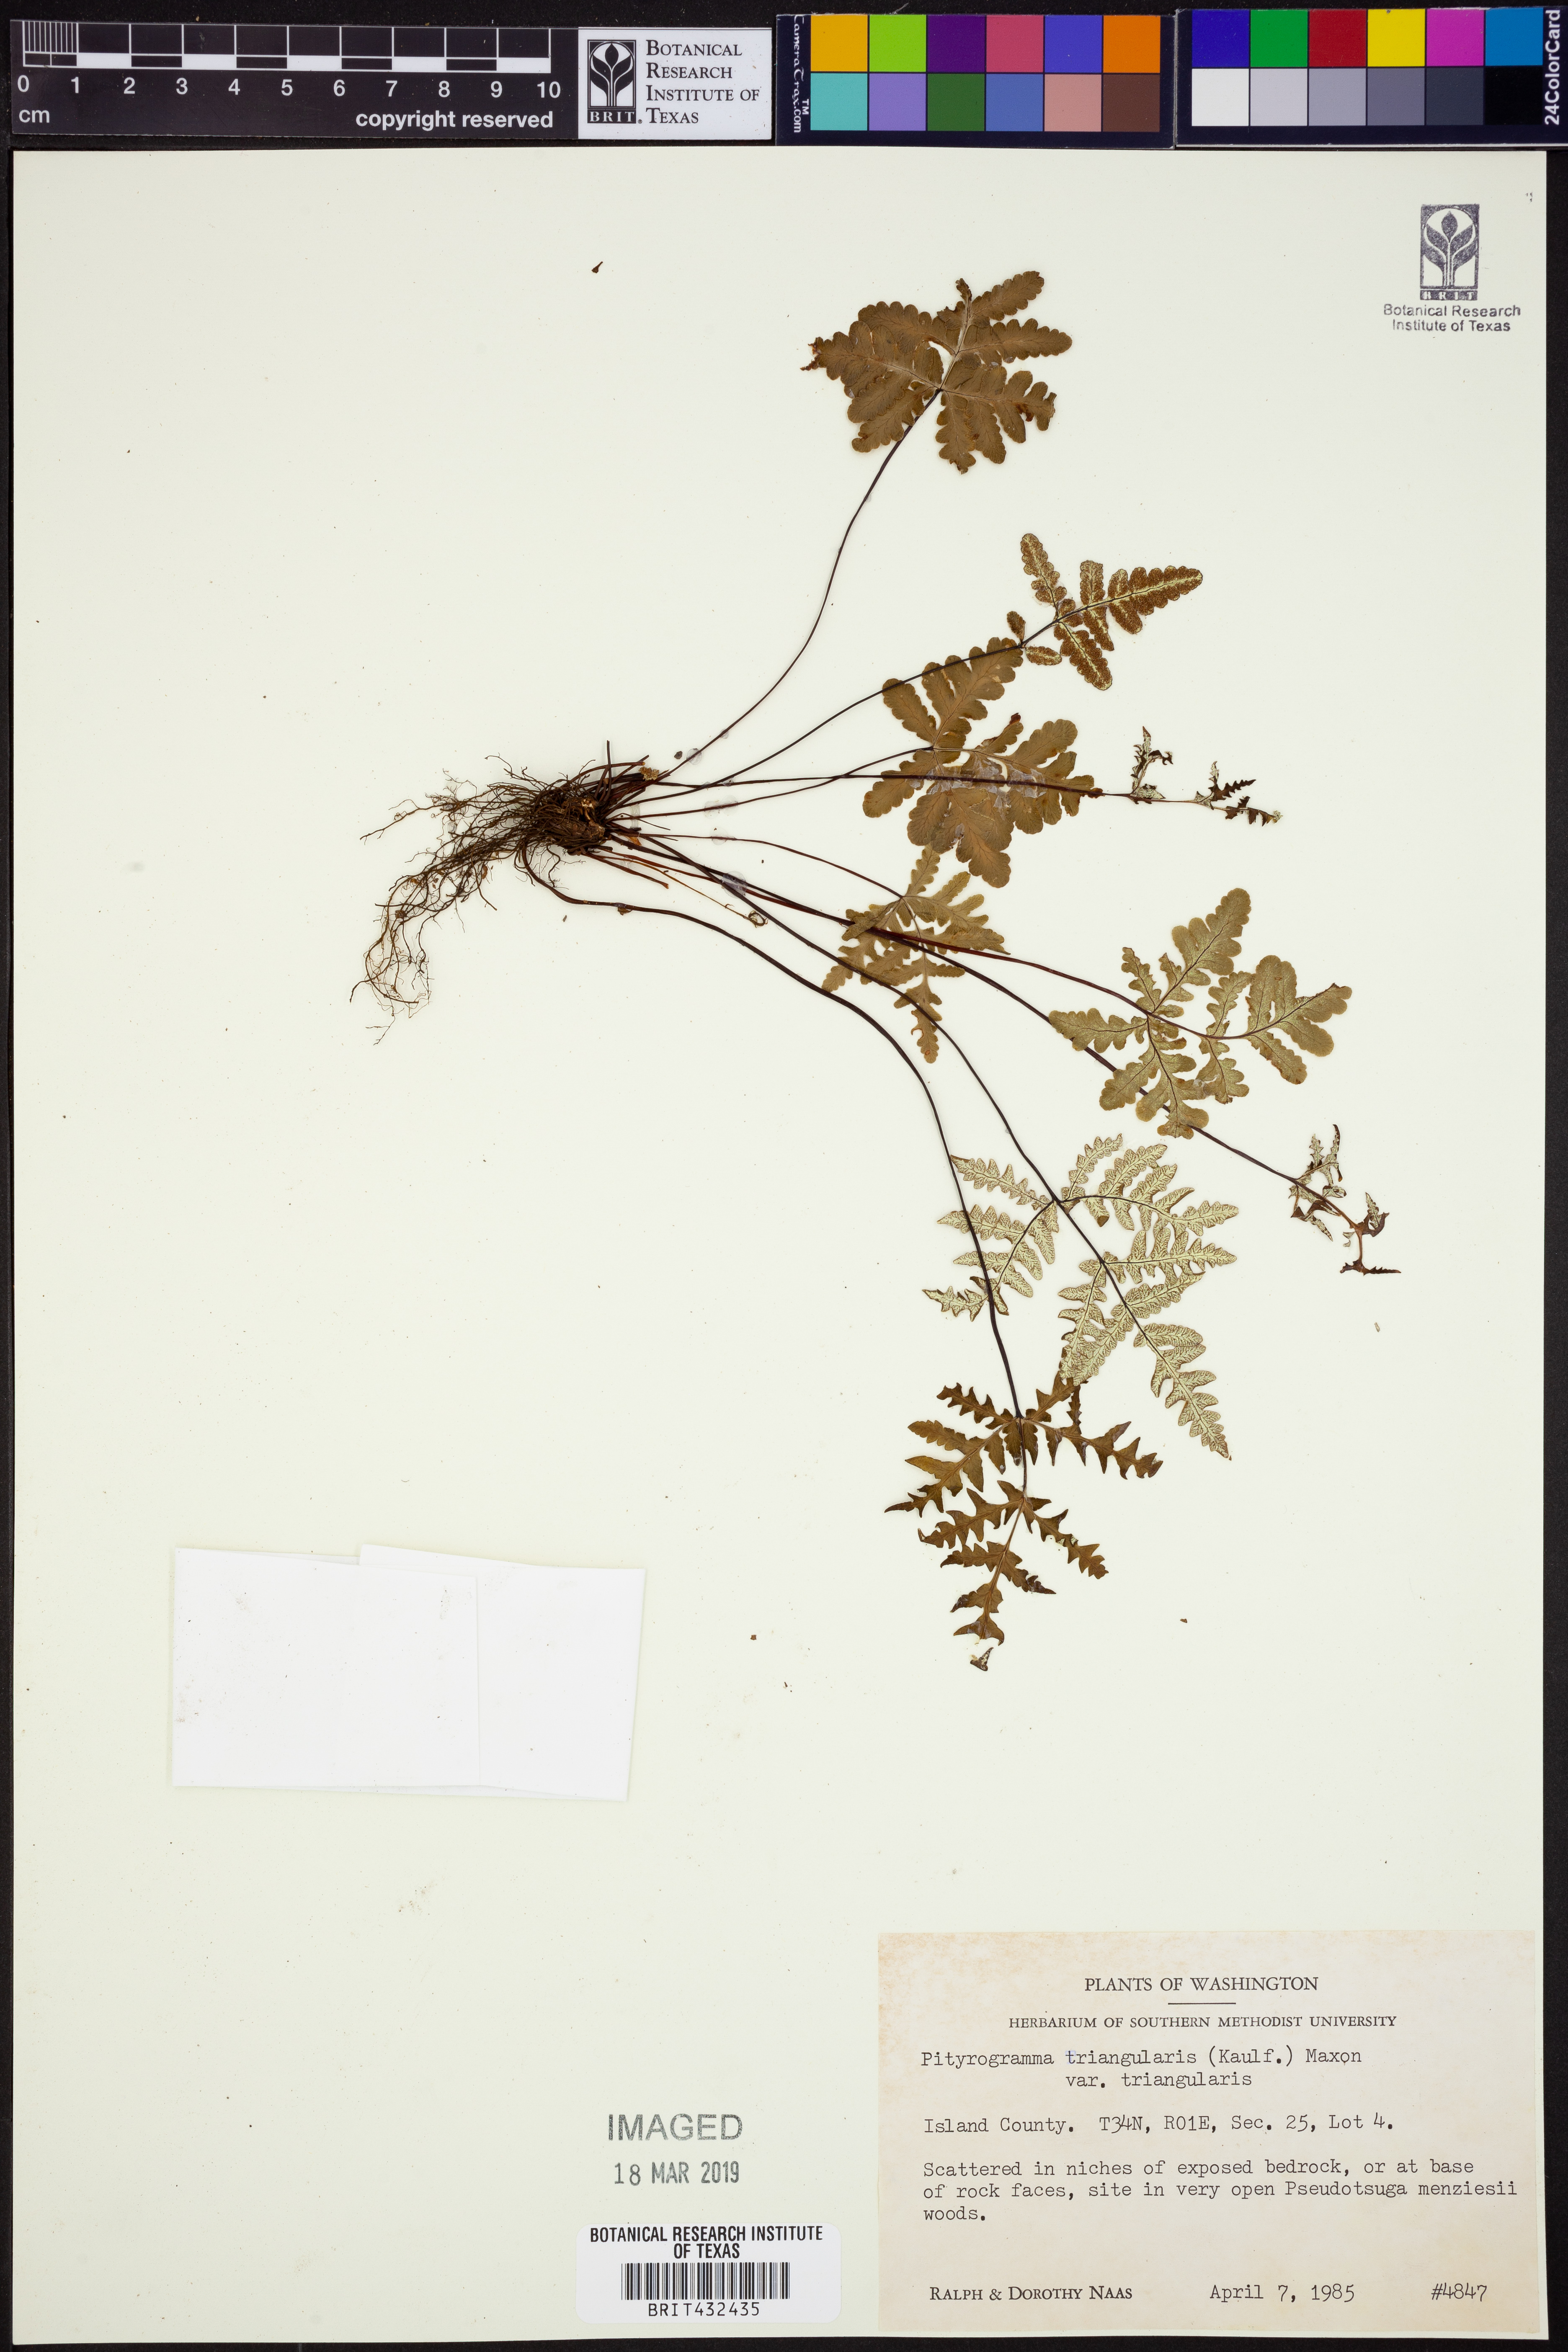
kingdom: Plantae
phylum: Tracheophyta
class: Polypodiopsida
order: Polypodiales
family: Pteridaceae
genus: Pentagramma
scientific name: Pentagramma triangularis
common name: Gold fern
